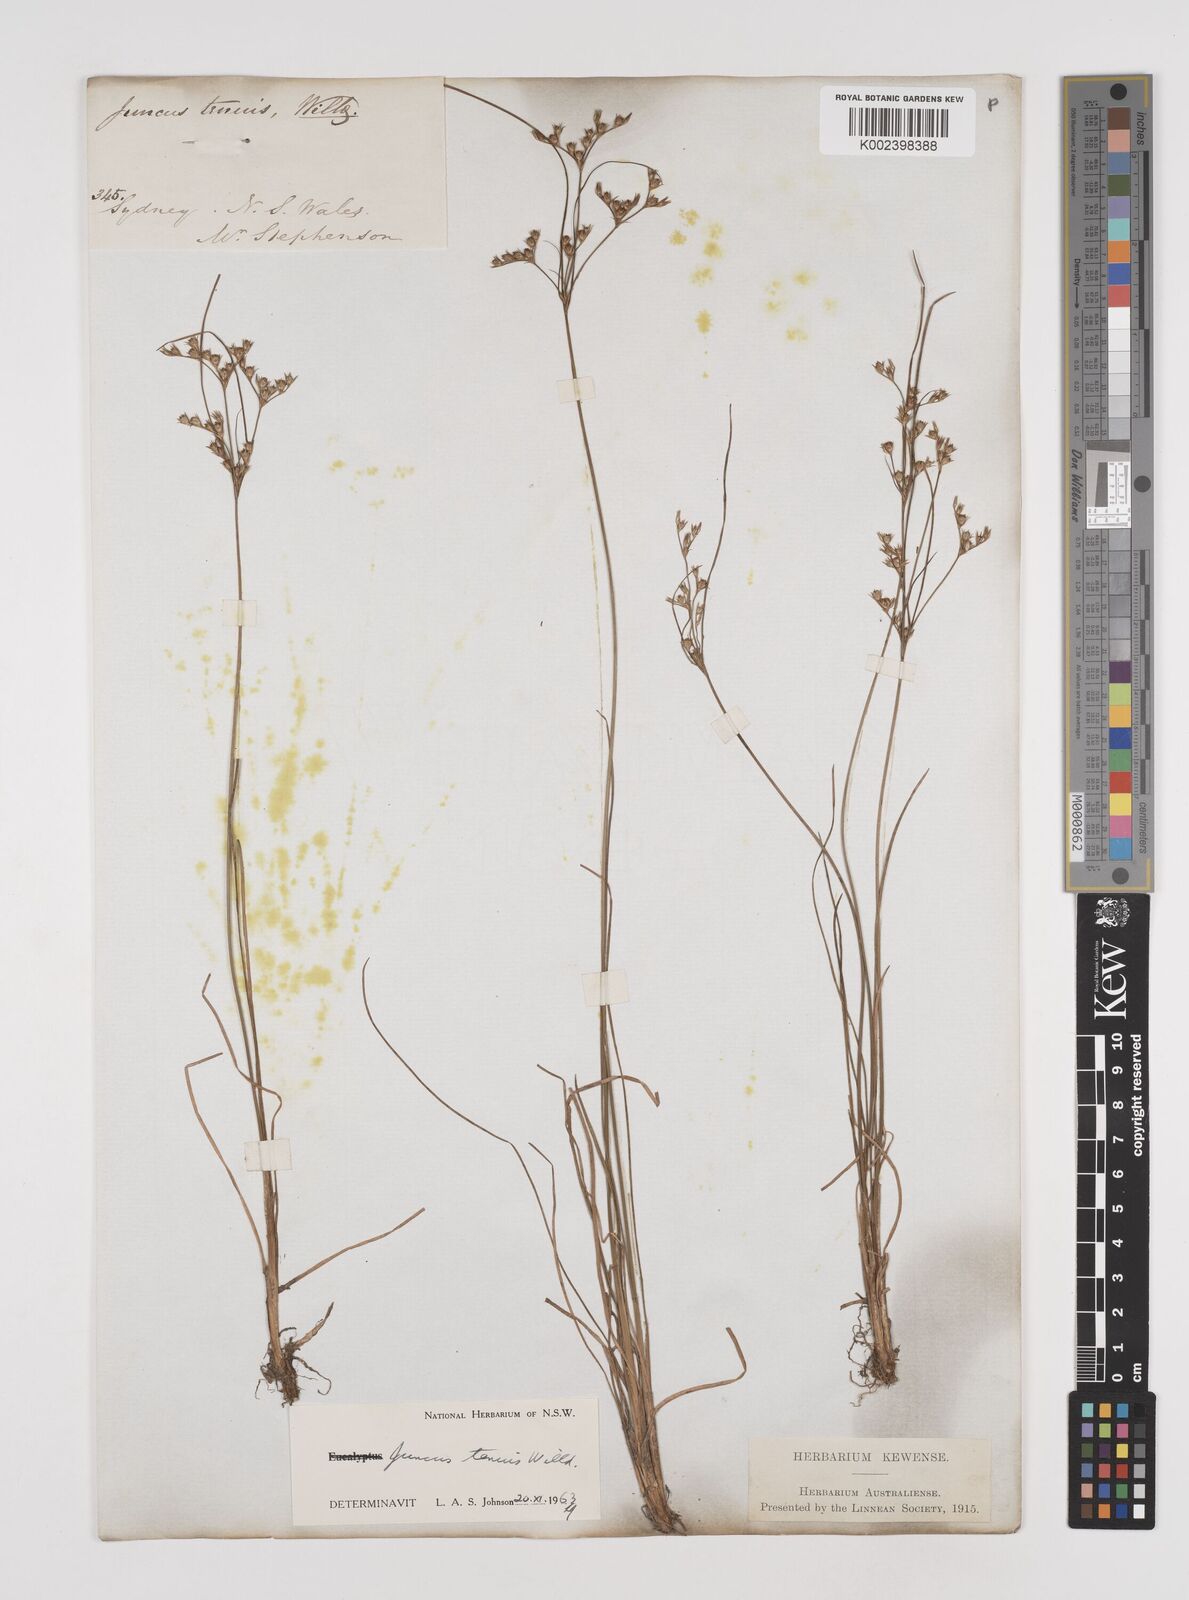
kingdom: Plantae
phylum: Tracheophyta
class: Liliopsida
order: Poales
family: Juncaceae
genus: Juncus
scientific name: Juncus tenuis
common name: Slender rush
